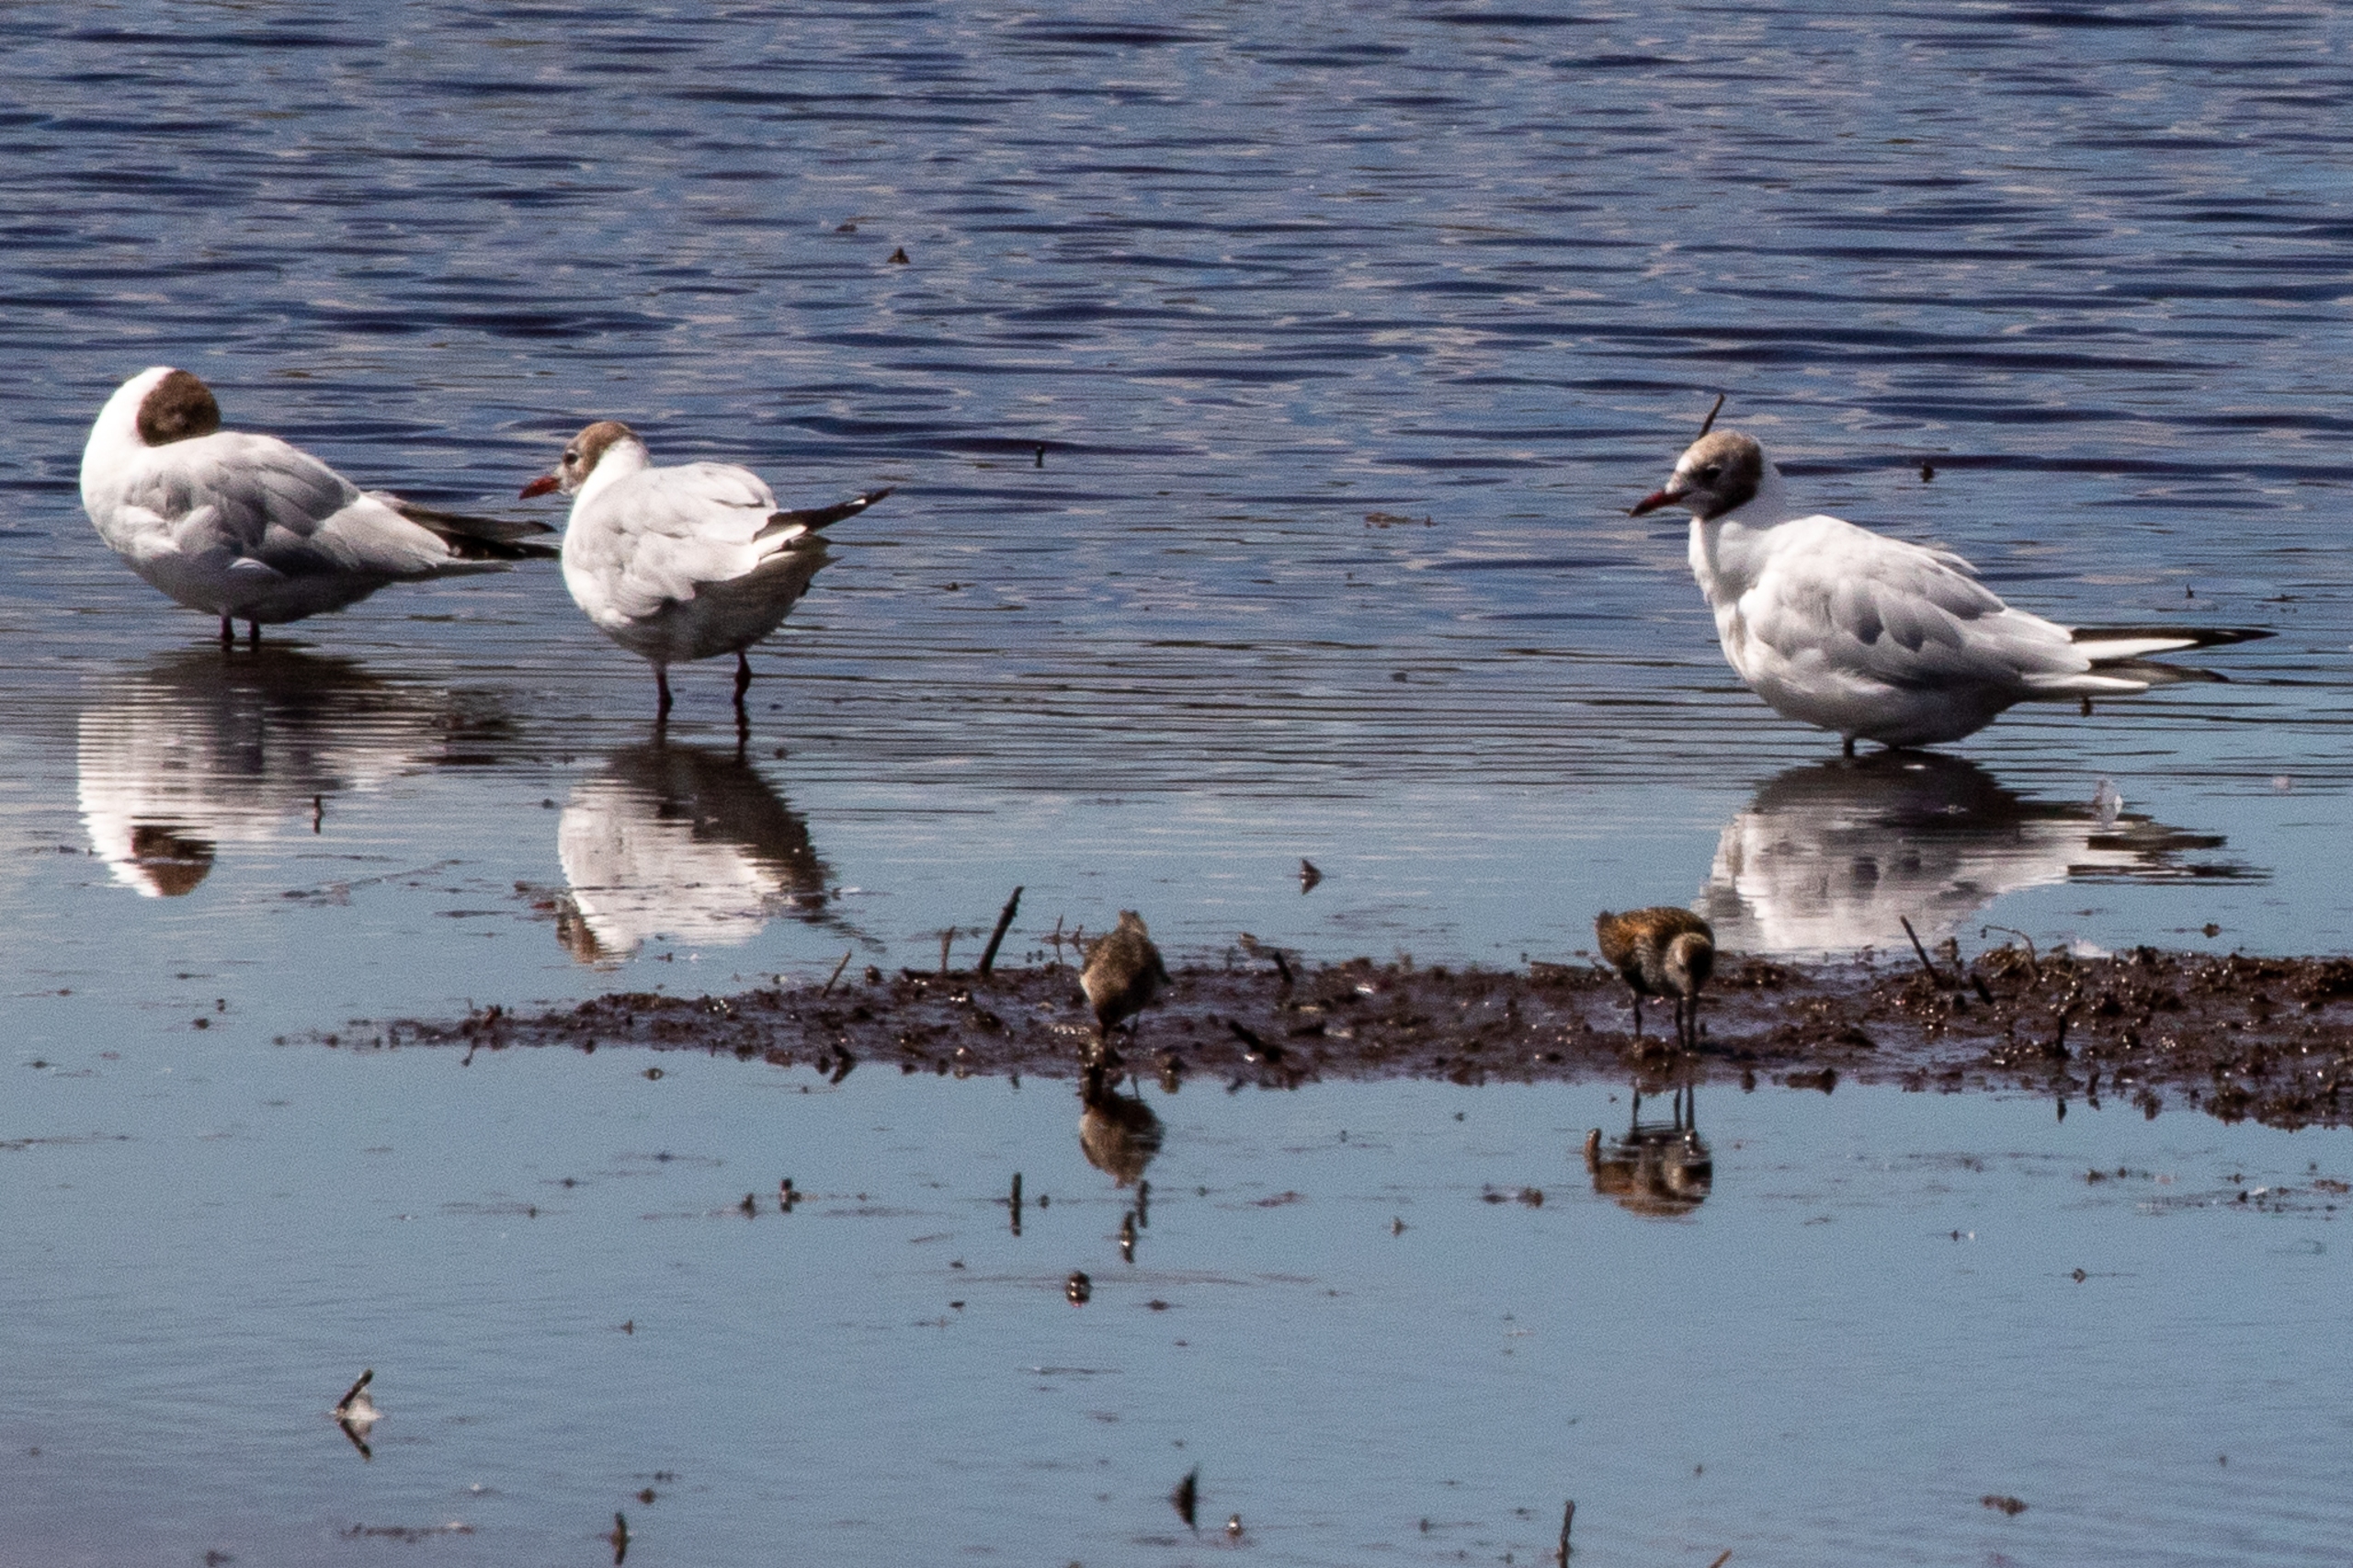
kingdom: Animalia
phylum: Chordata
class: Aves
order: Charadriiformes
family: Laridae
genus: Chroicocephalus
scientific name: Chroicocephalus ridibundus
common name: Hættemåge
